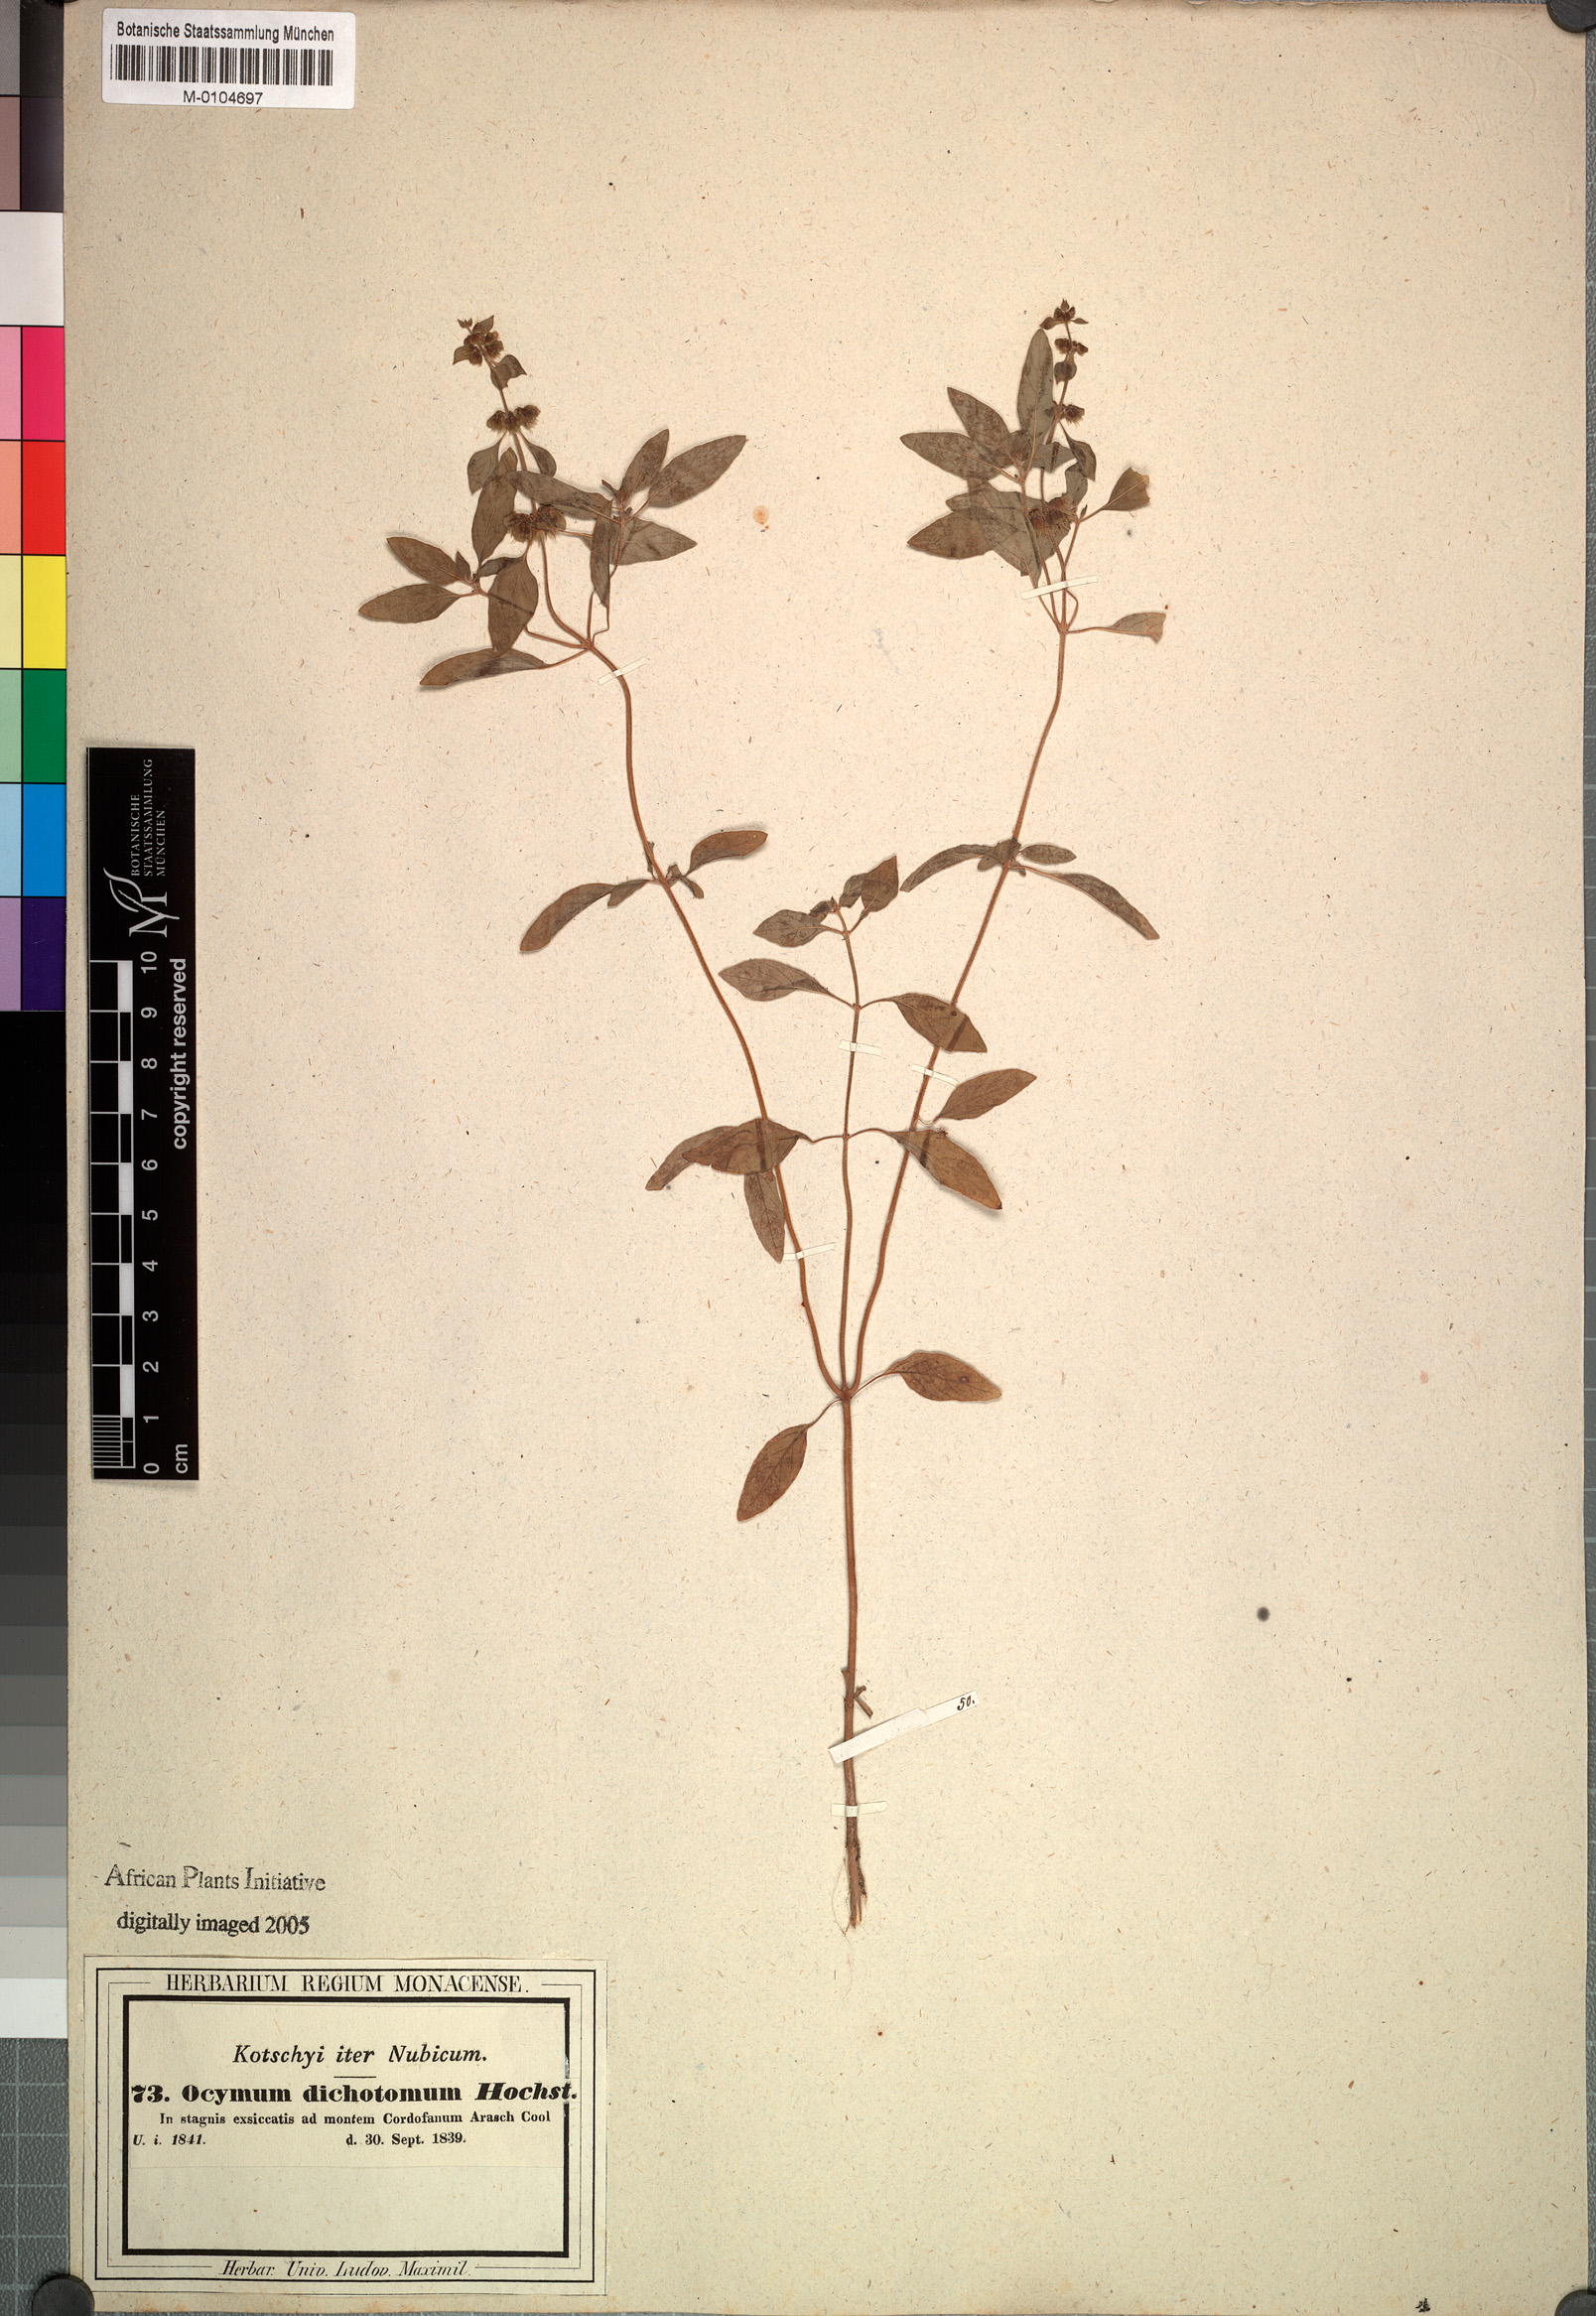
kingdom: Plantae
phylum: Tracheophyta
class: Magnoliopsida
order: Lamiales
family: Lamiaceae
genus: Ocimum
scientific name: Ocimum americanum
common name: American basil
